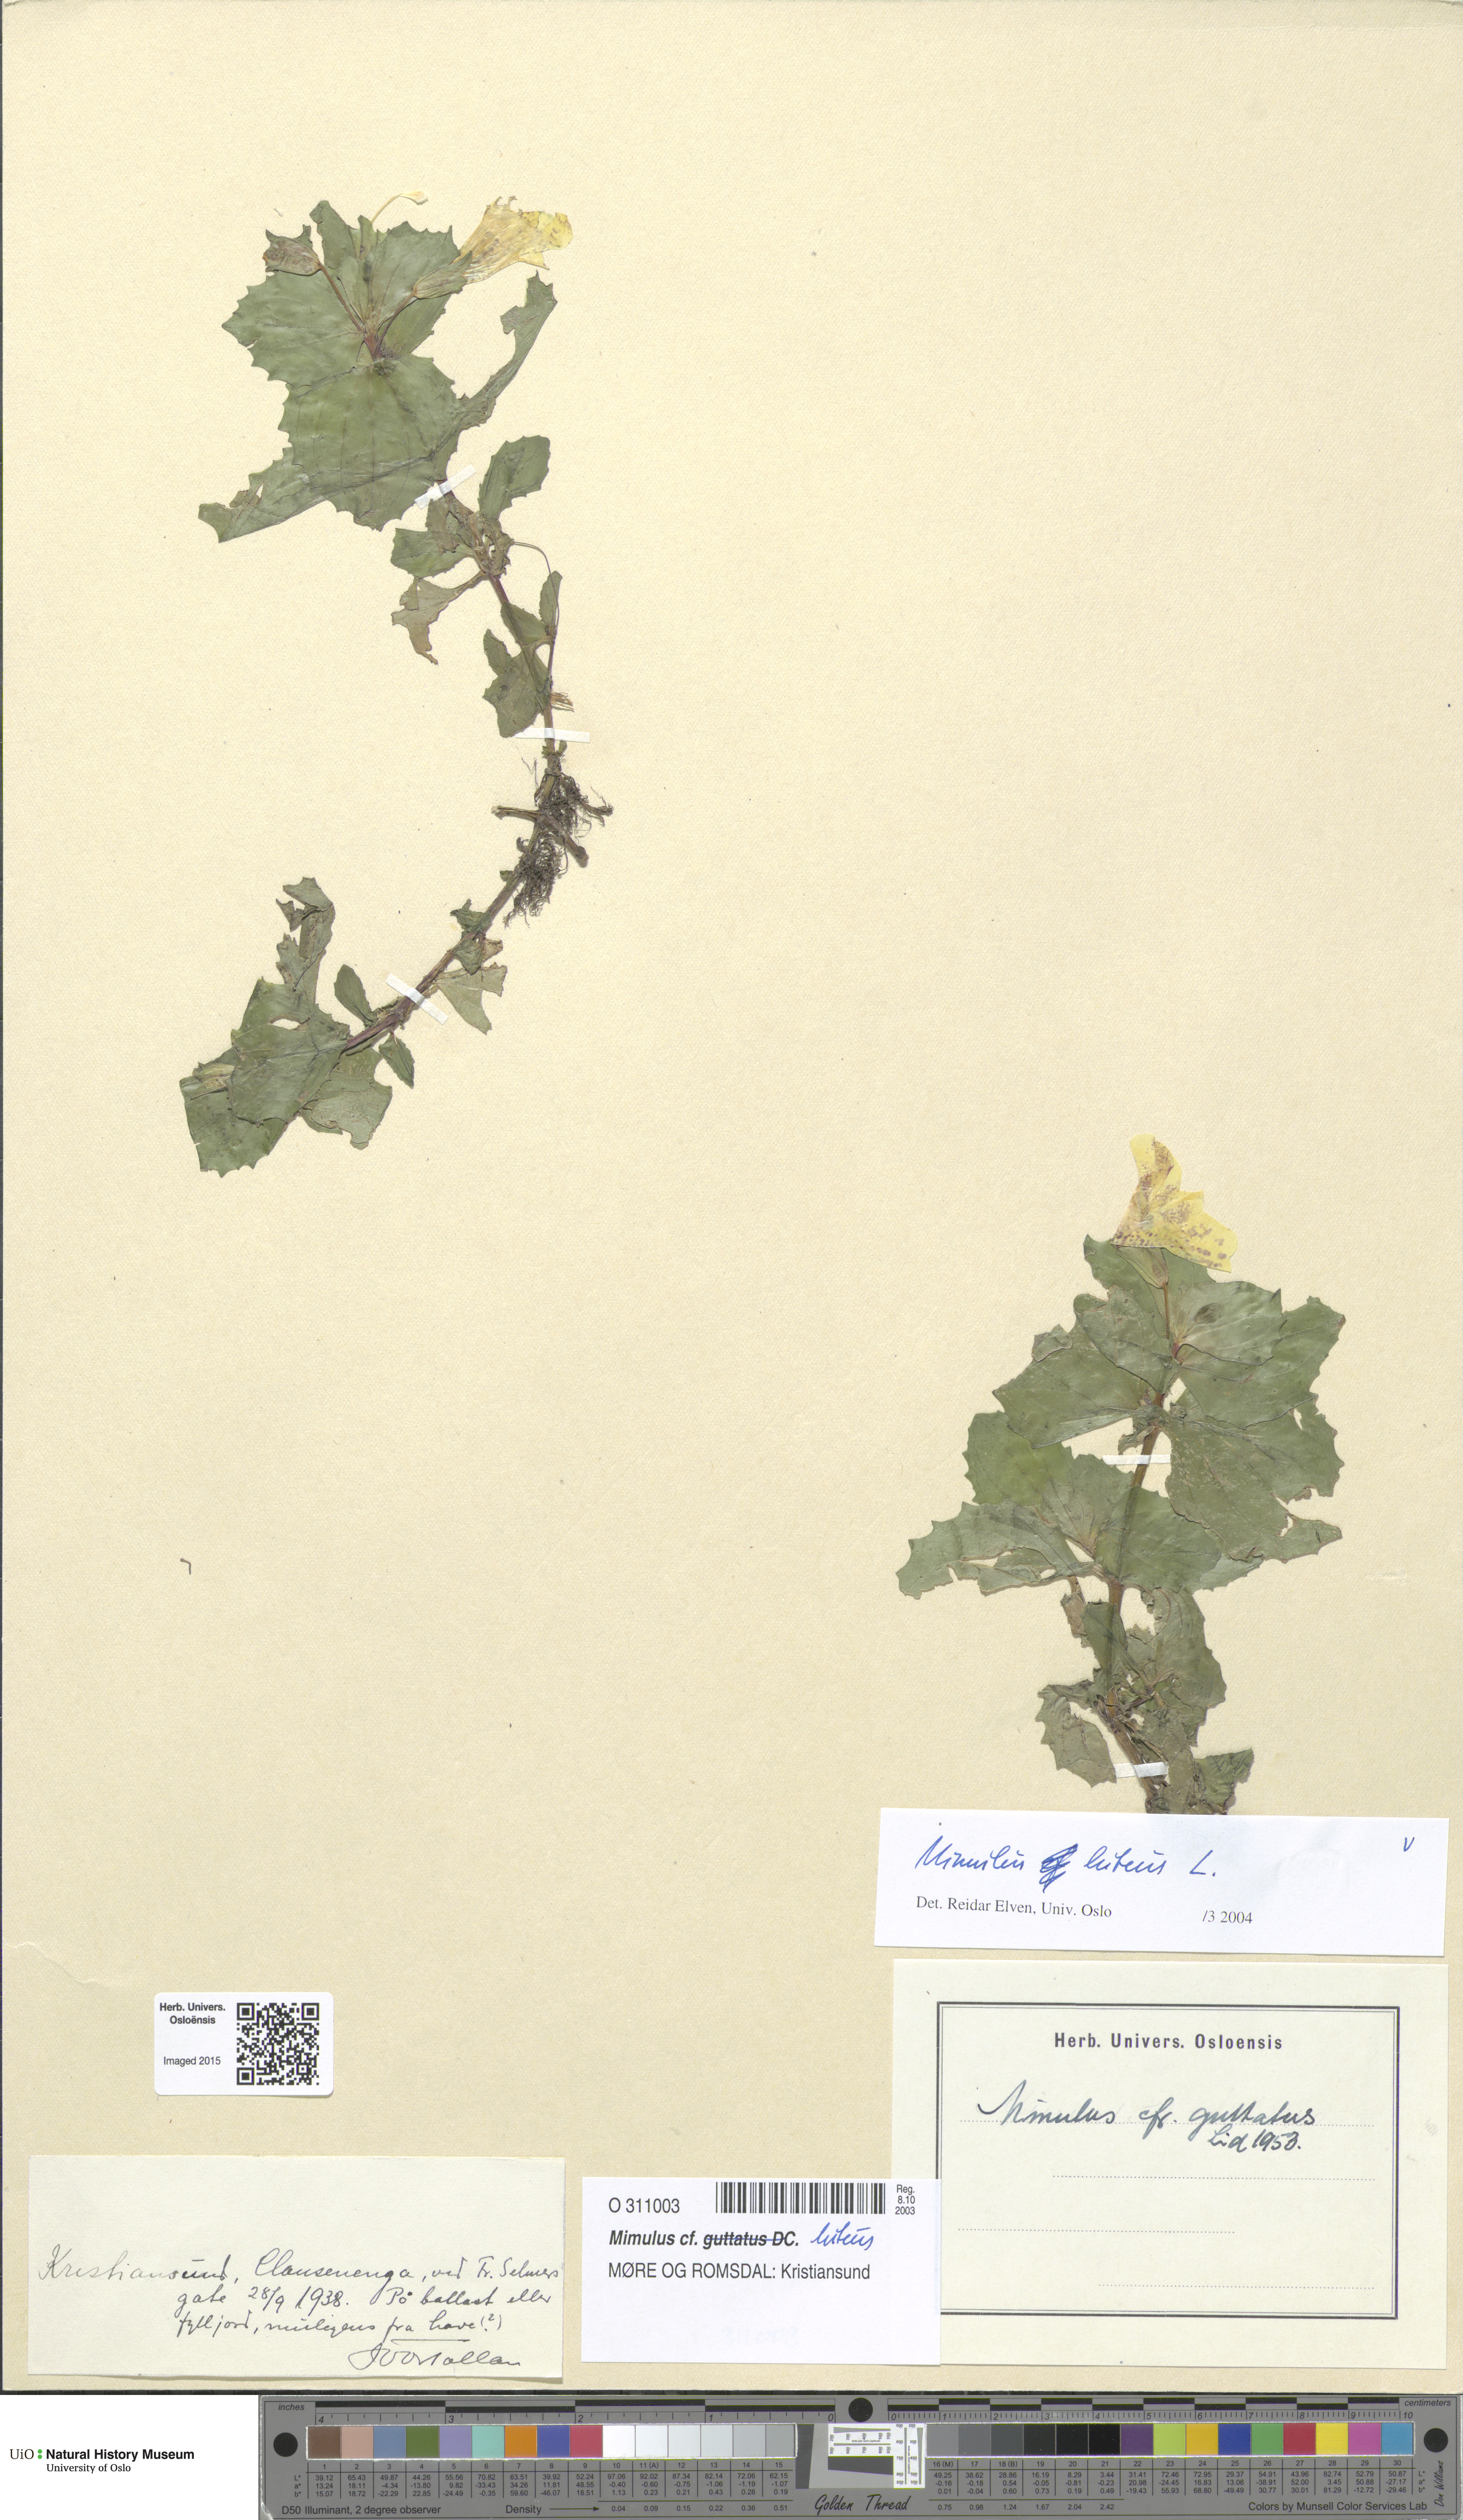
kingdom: Plantae
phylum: Tracheophyta
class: Magnoliopsida
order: Lamiales
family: Phrymaceae
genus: Erythranthe
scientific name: Erythranthe lutea
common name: Yellow monkey-flower
